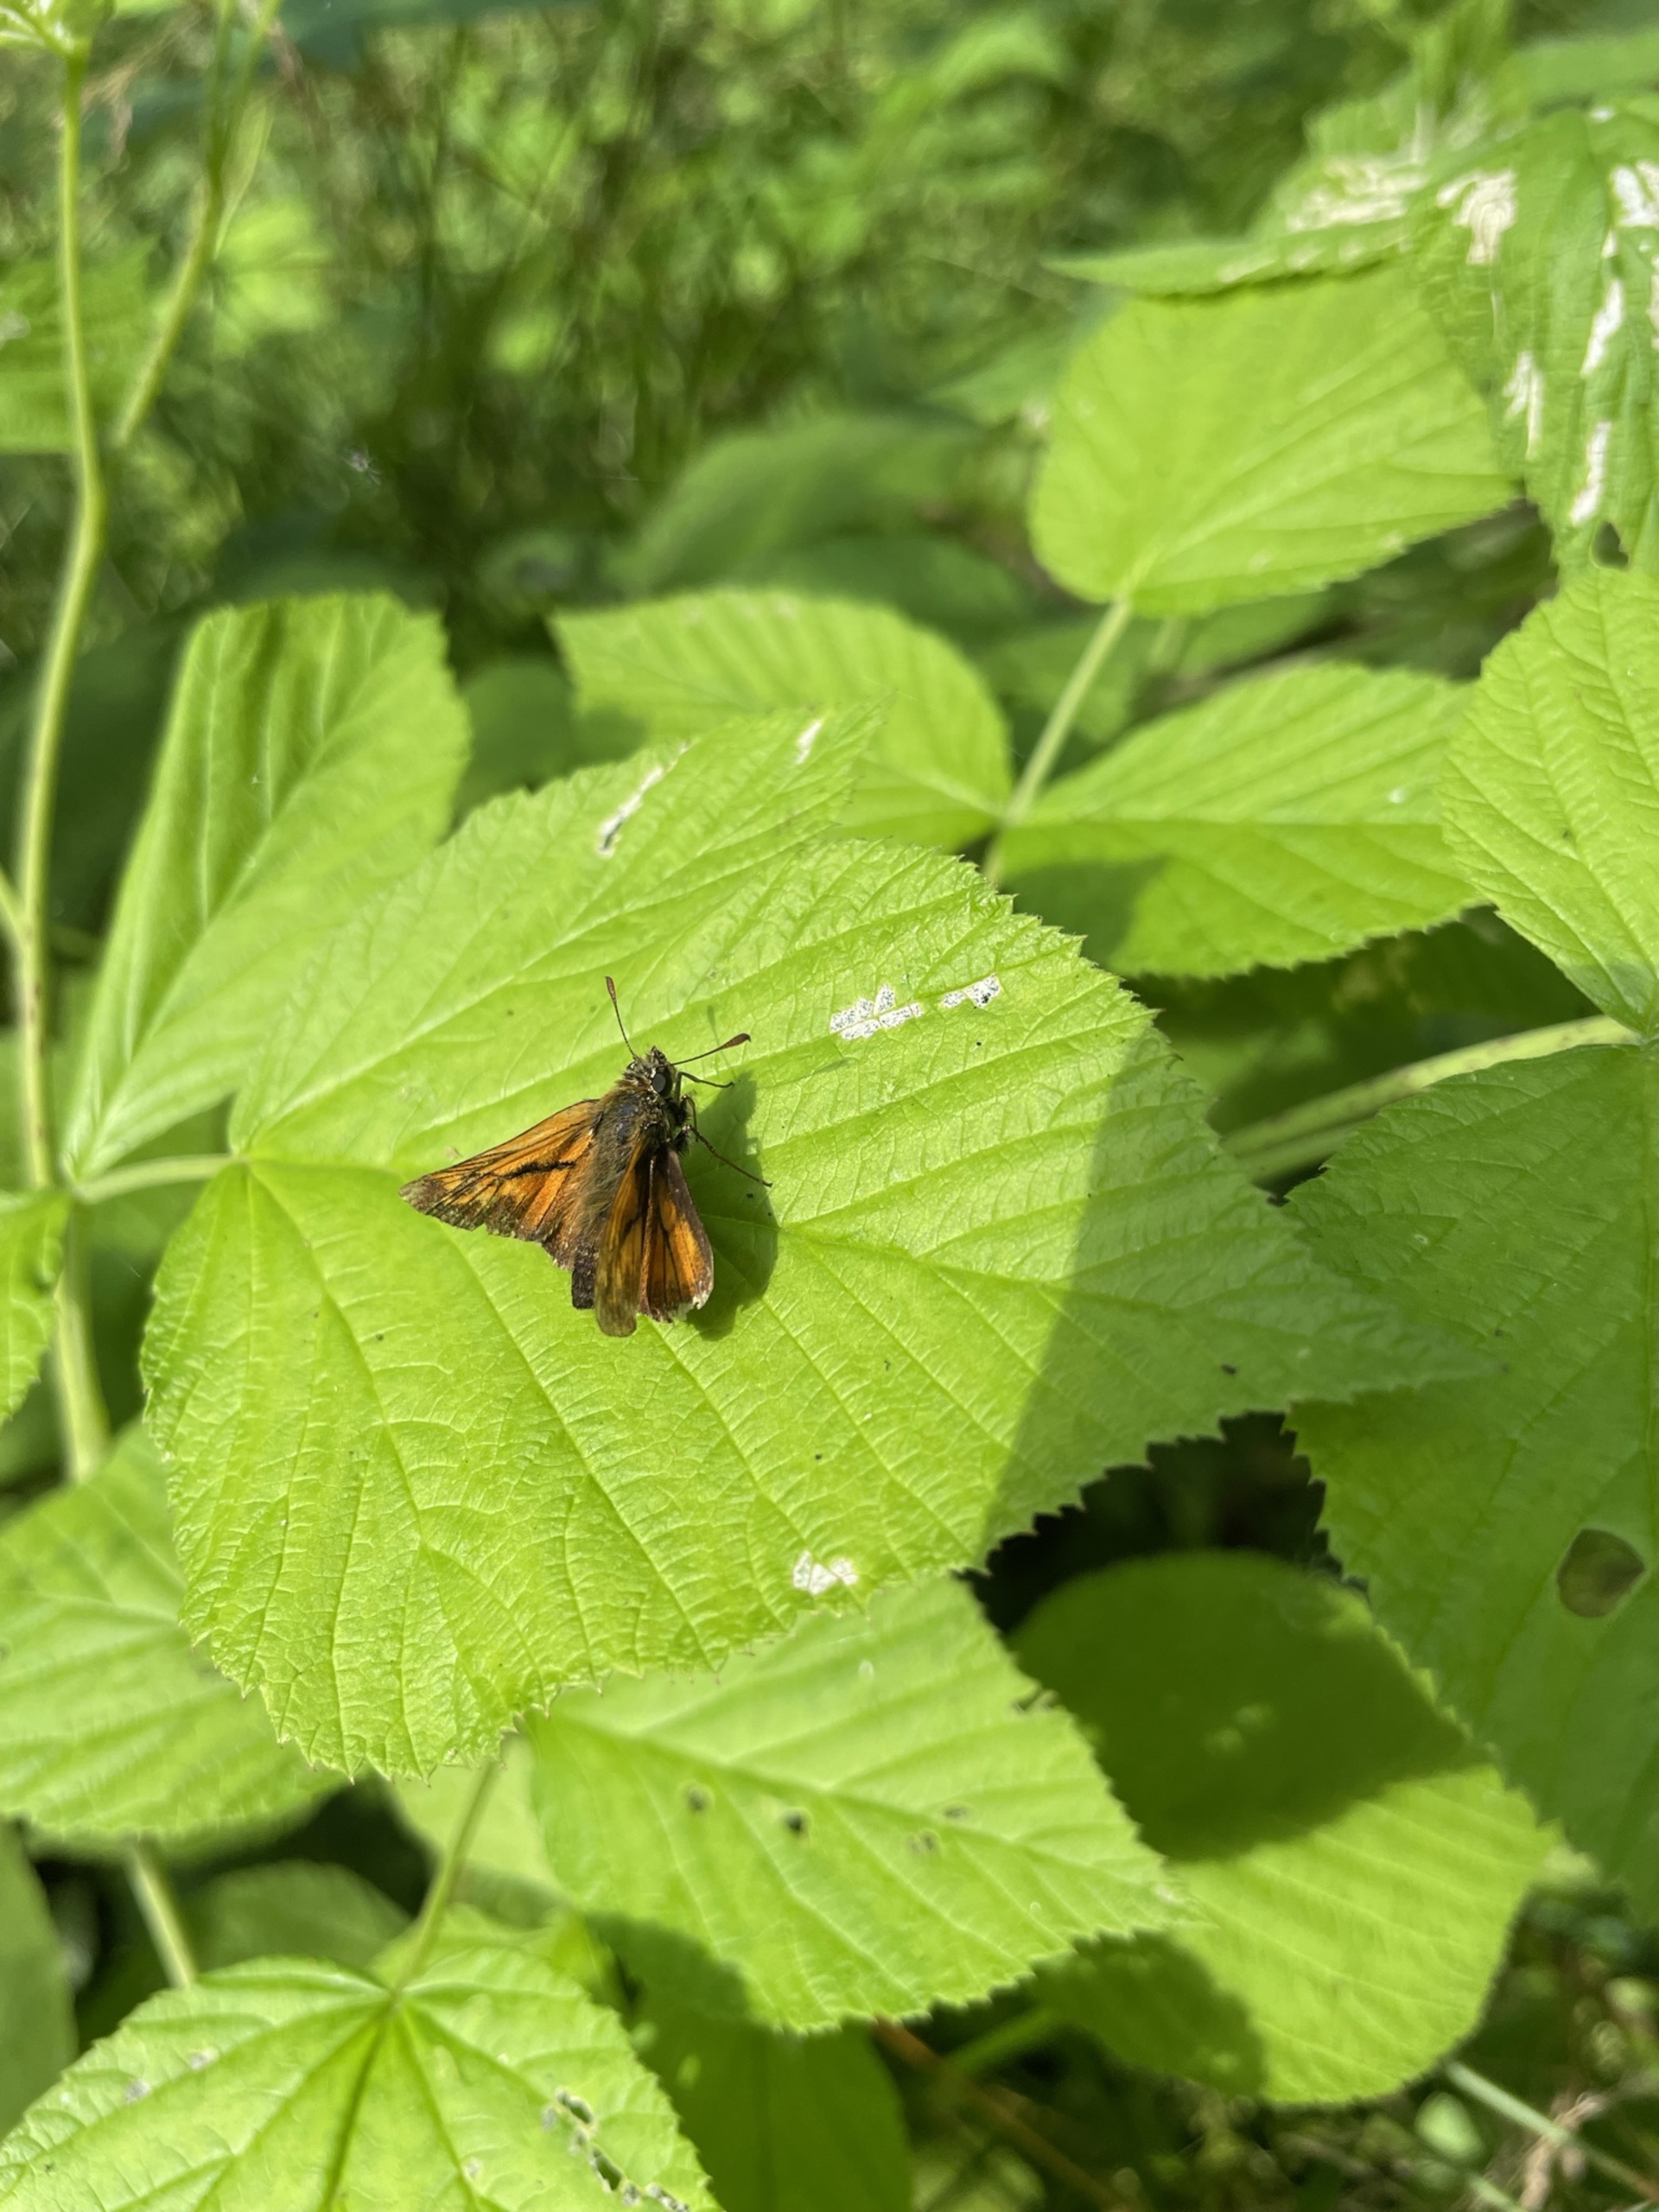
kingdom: Animalia
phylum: Arthropoda
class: Insecta
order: Lepidoptera
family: Hesperiidae
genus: Ochlodes
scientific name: Ochlodes venata
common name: Stor bredpande
